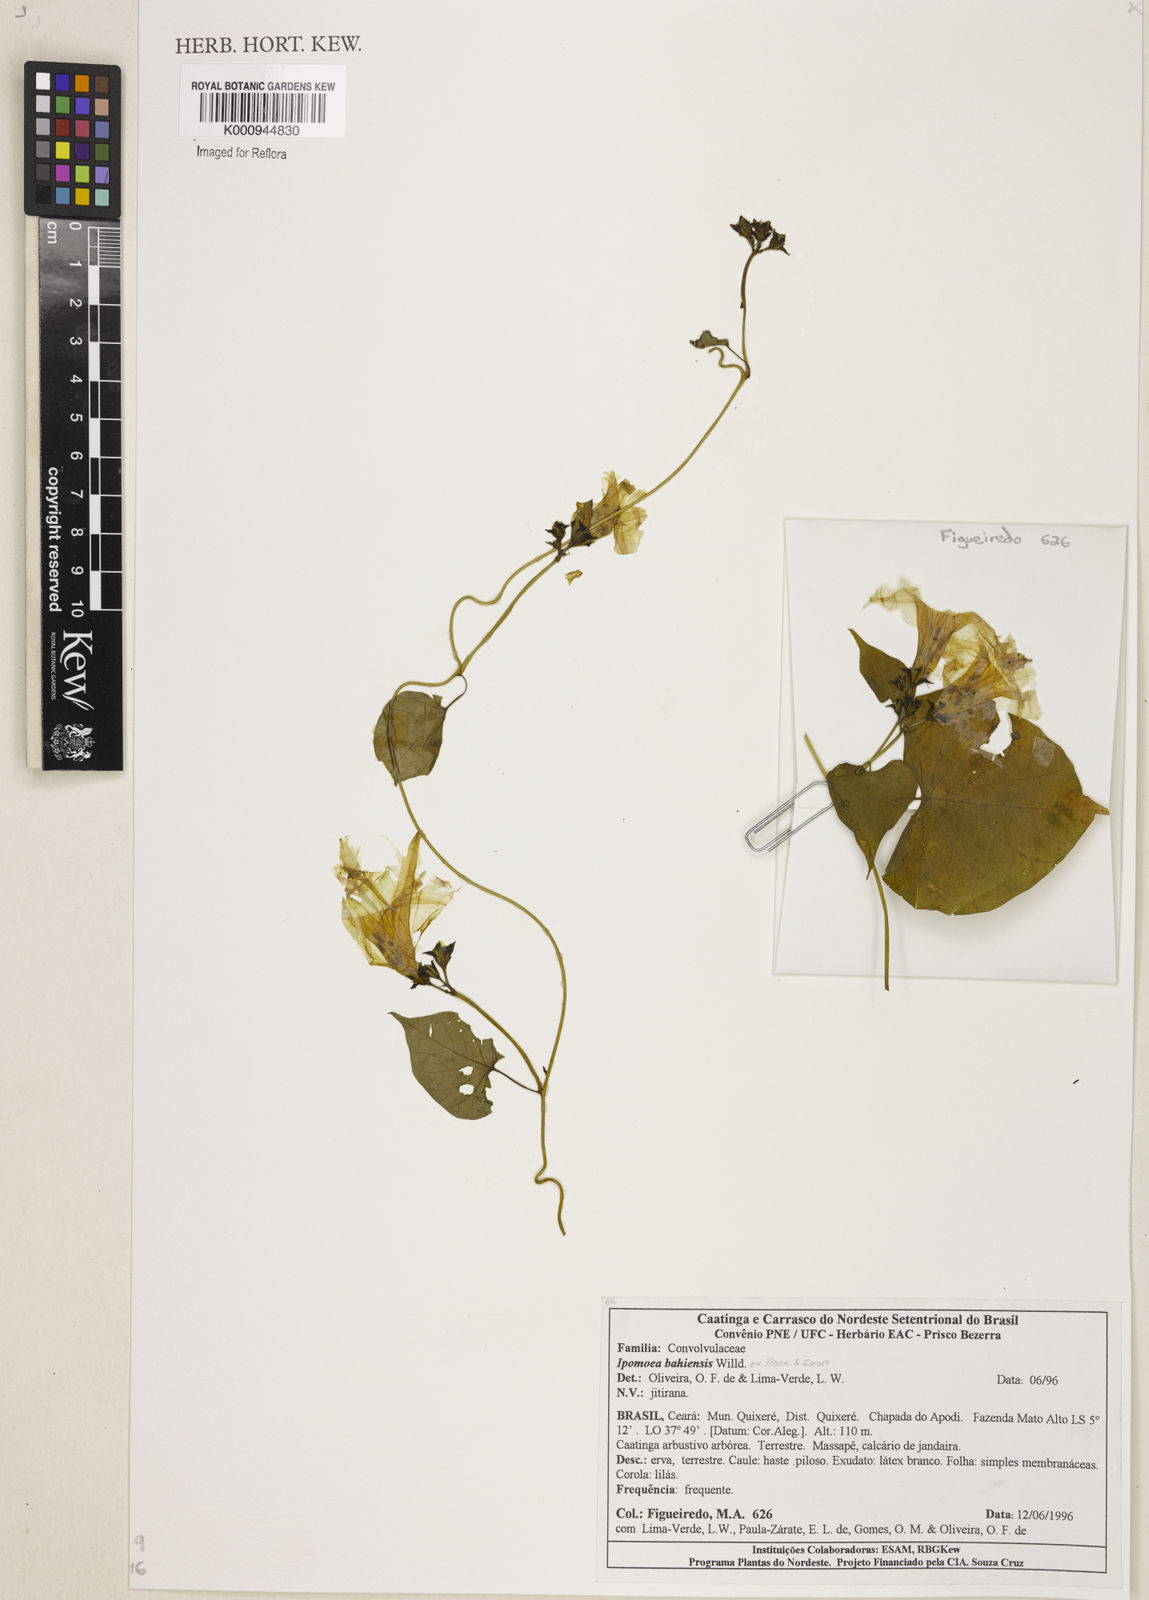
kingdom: Plantae
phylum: Tracheophyta
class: Magnoliopsida
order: Solanales
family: Convolvulaceae
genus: Ipomoea
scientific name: Ipomoea
